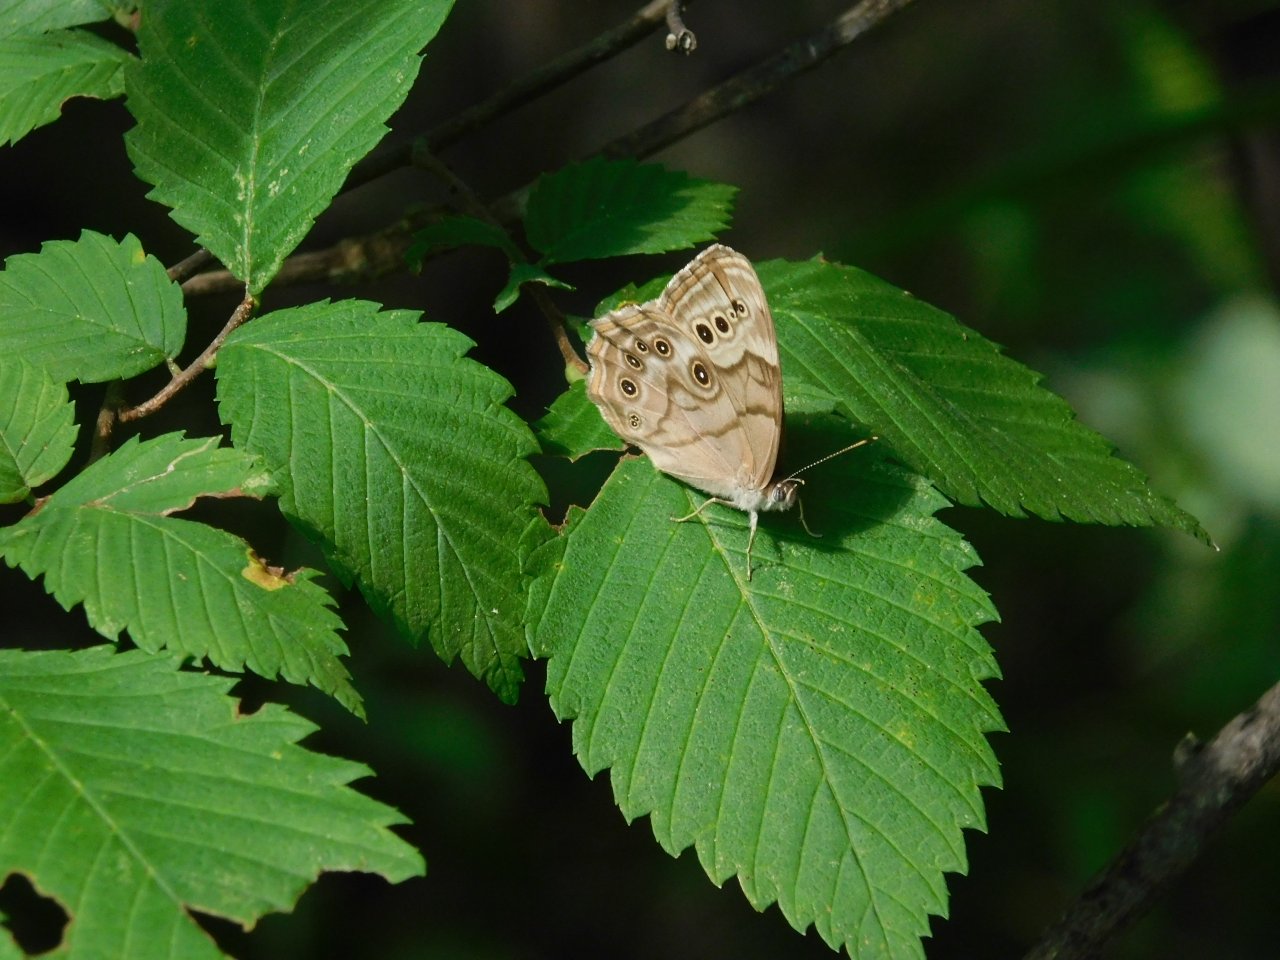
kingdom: Animalia
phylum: Arthropoda
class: Insecta
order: Lepidoptera
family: Nymphalidae
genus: Lethe
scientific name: Lethe anthedon
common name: Northern Pearly-Eye
